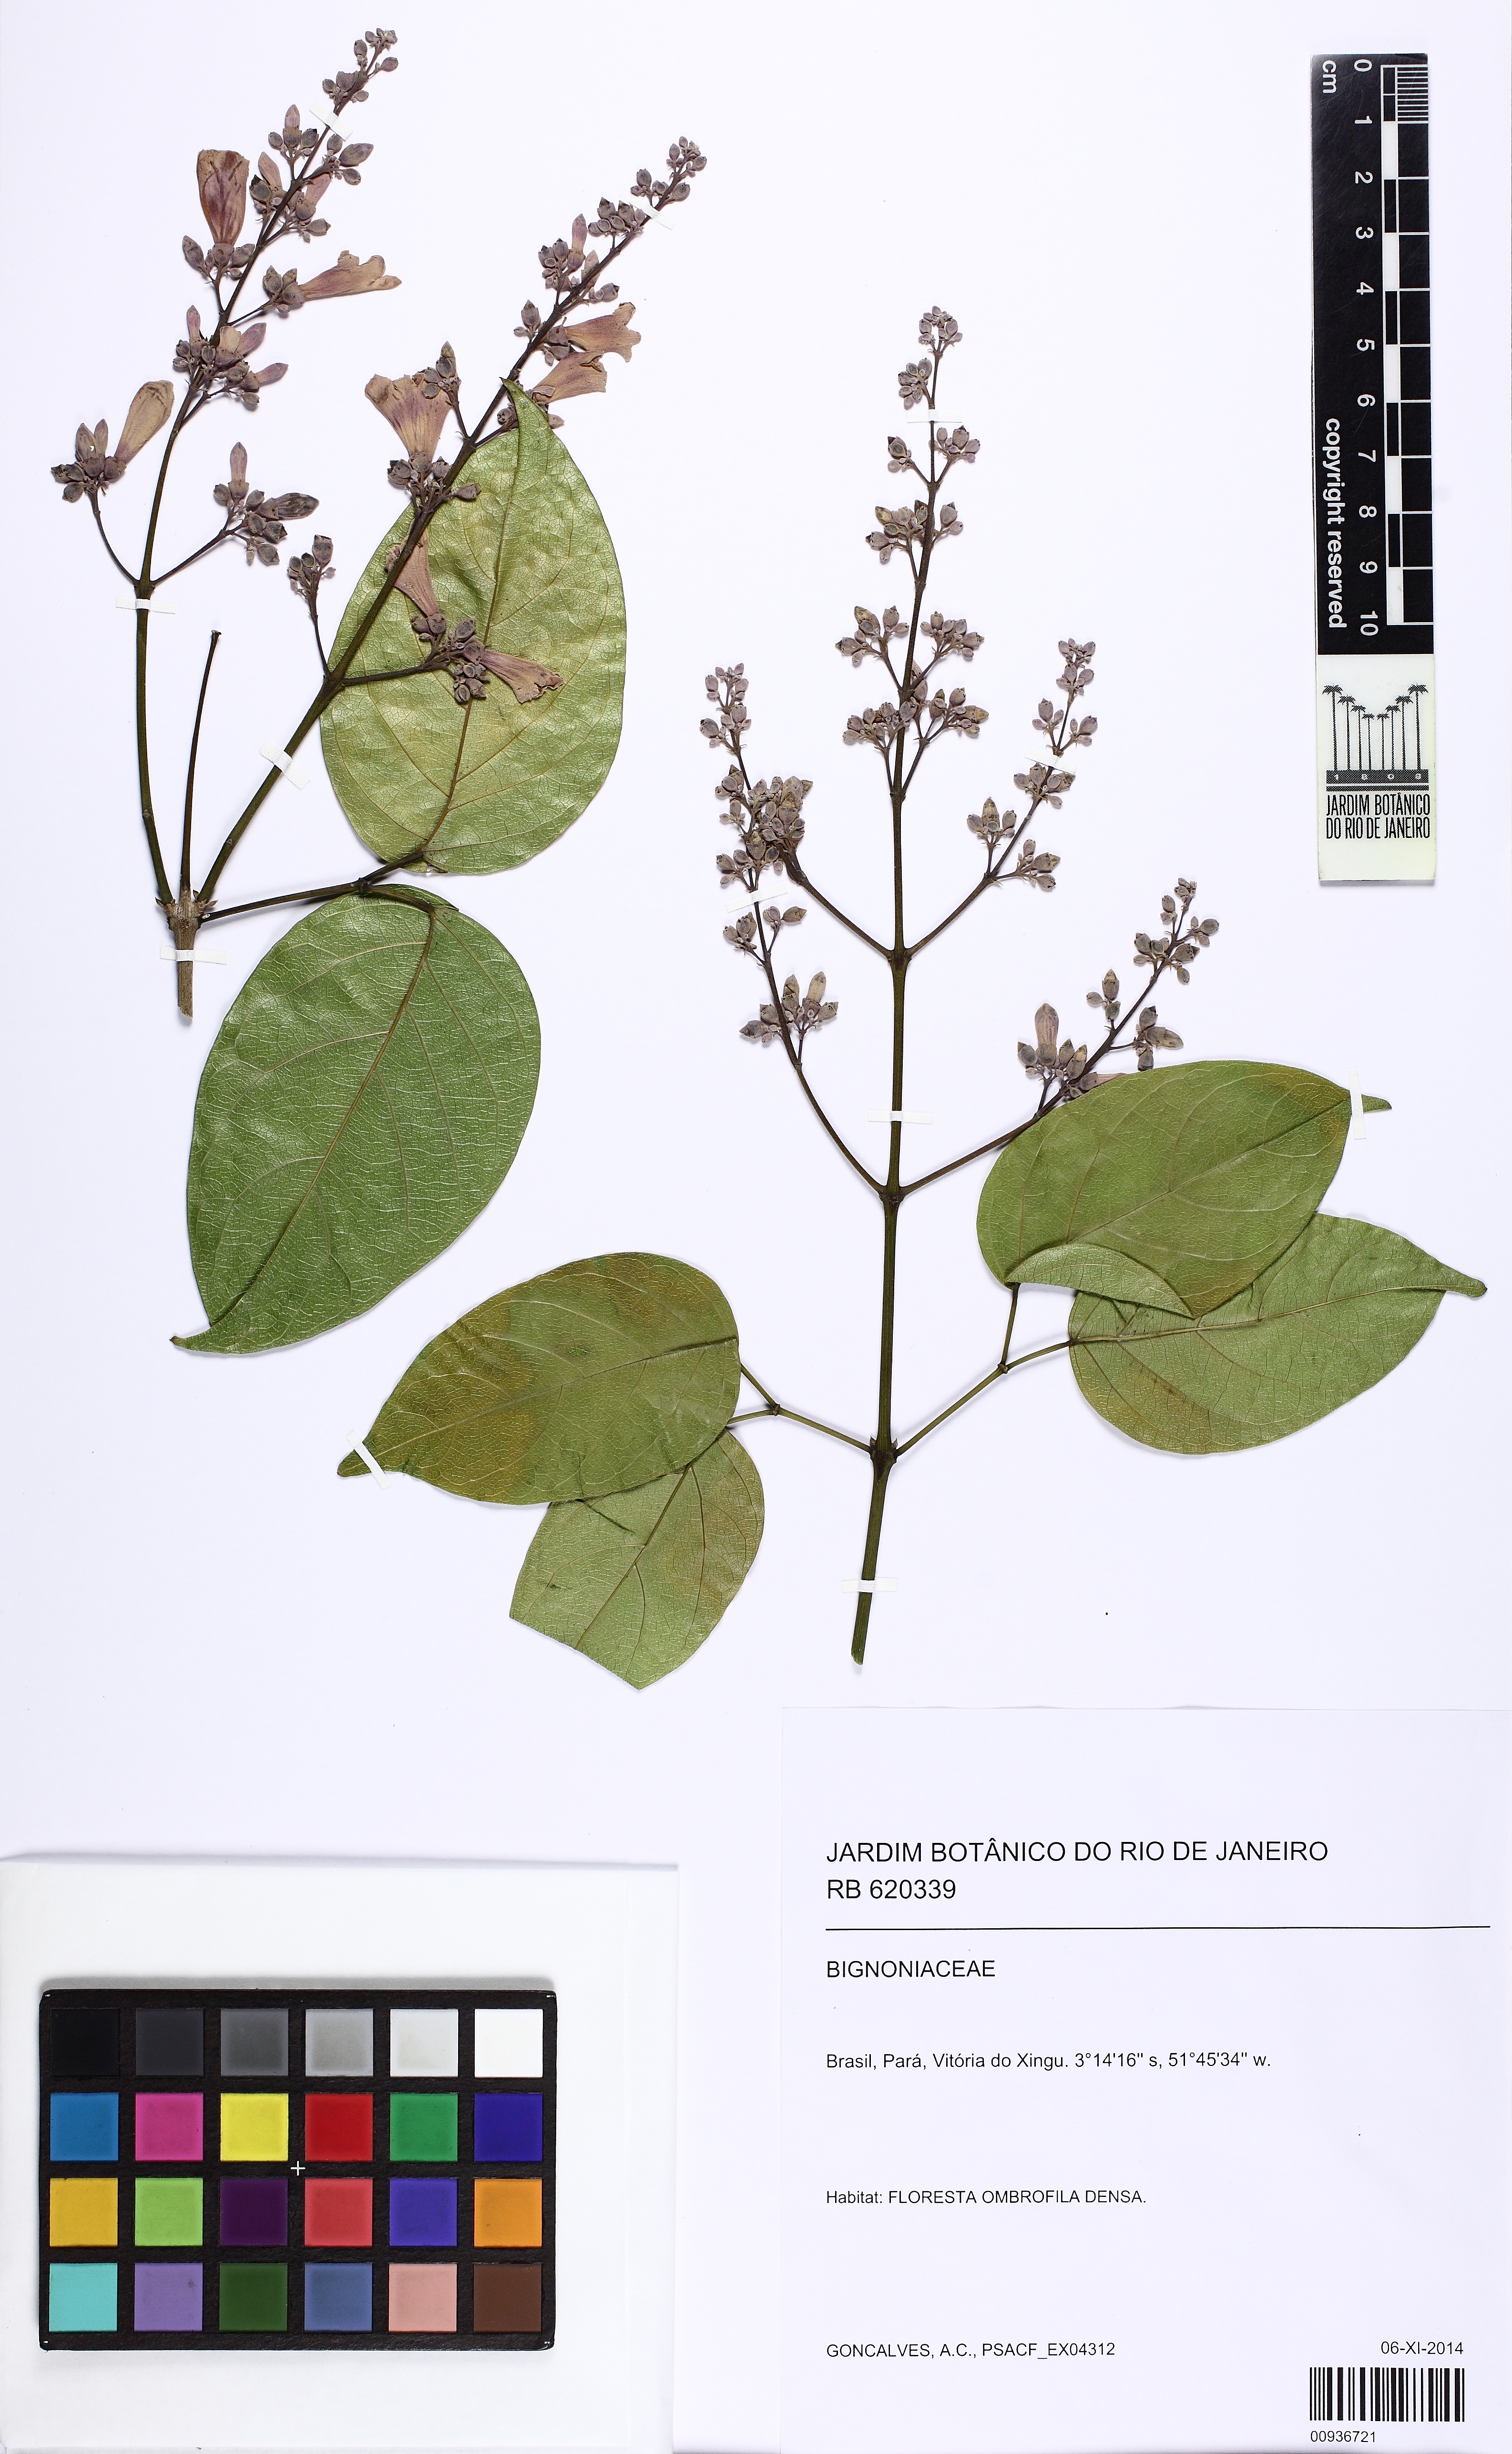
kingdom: Plantae
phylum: Tracheophyta
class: Magnoliopsida
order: Lamiales
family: Bignoniaceae
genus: Fridericia
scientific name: Fridericia spicata
